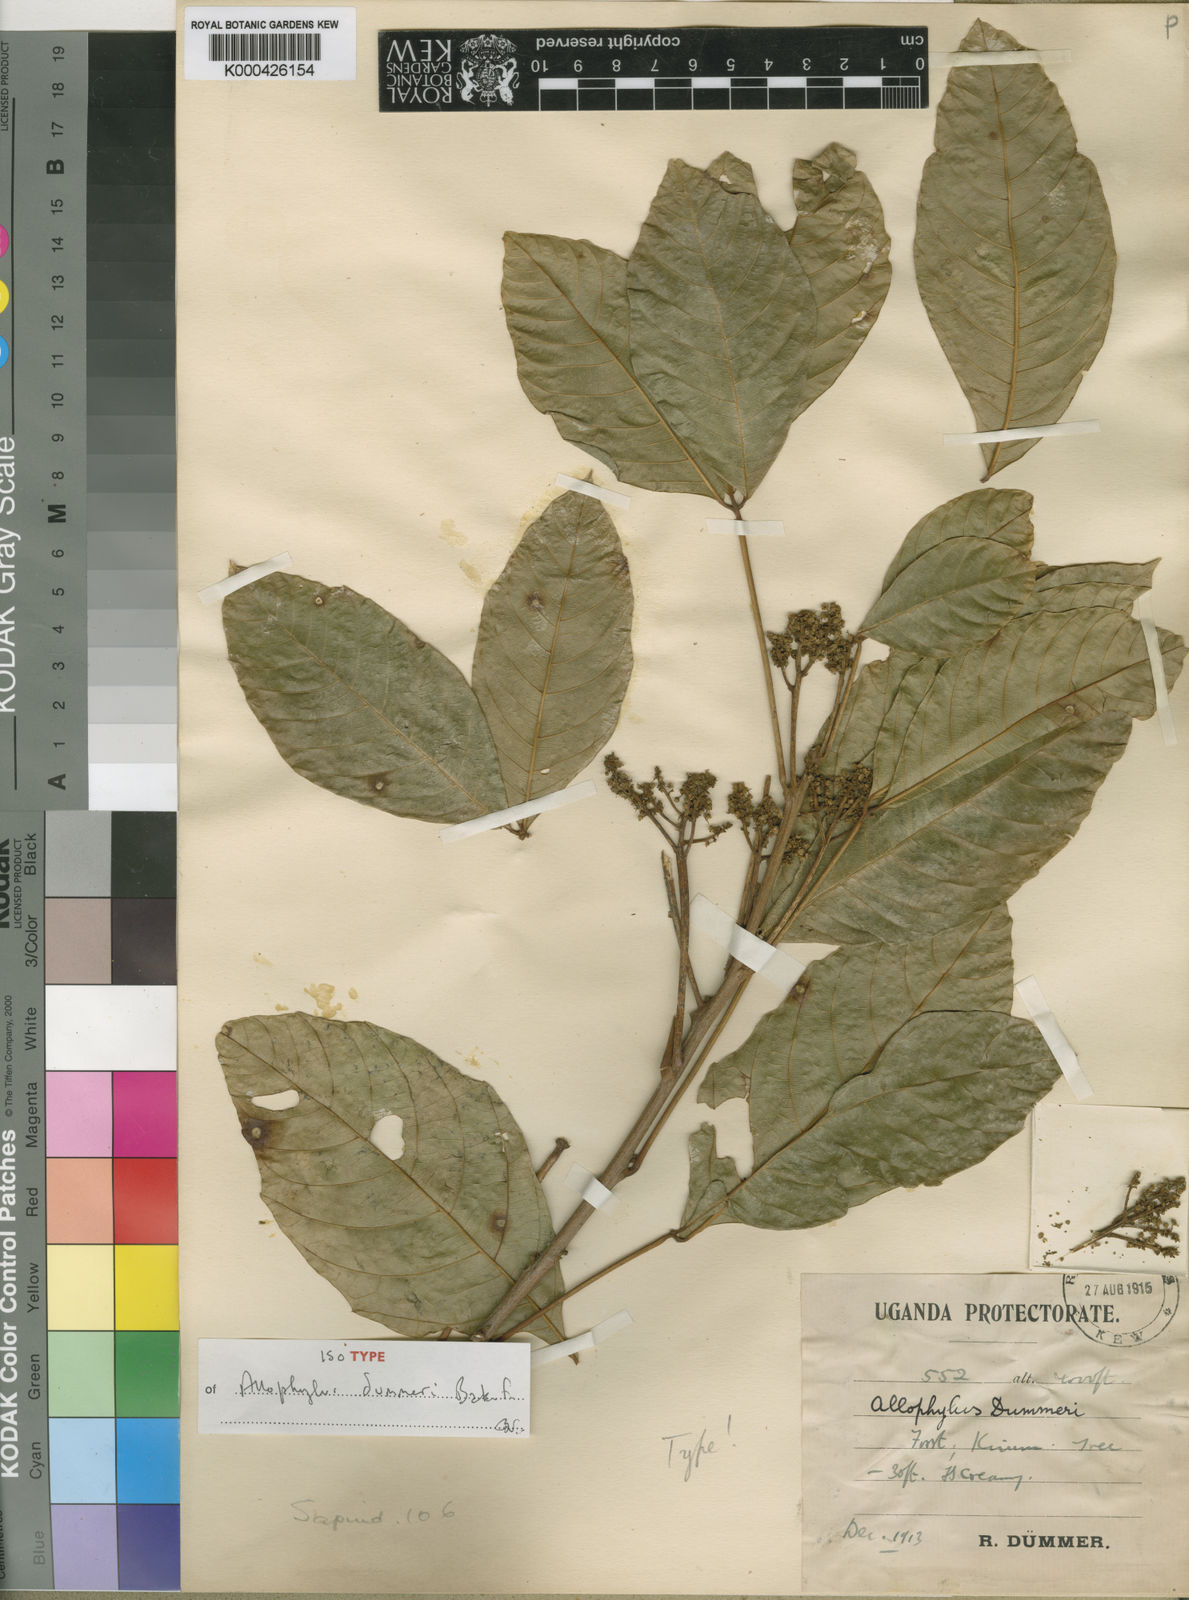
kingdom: Plantae
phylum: Tracheophyta
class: Magnoliopsida
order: Sapindales
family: Sapindaceae
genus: Allophylus
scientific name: Allophylus dummeri
